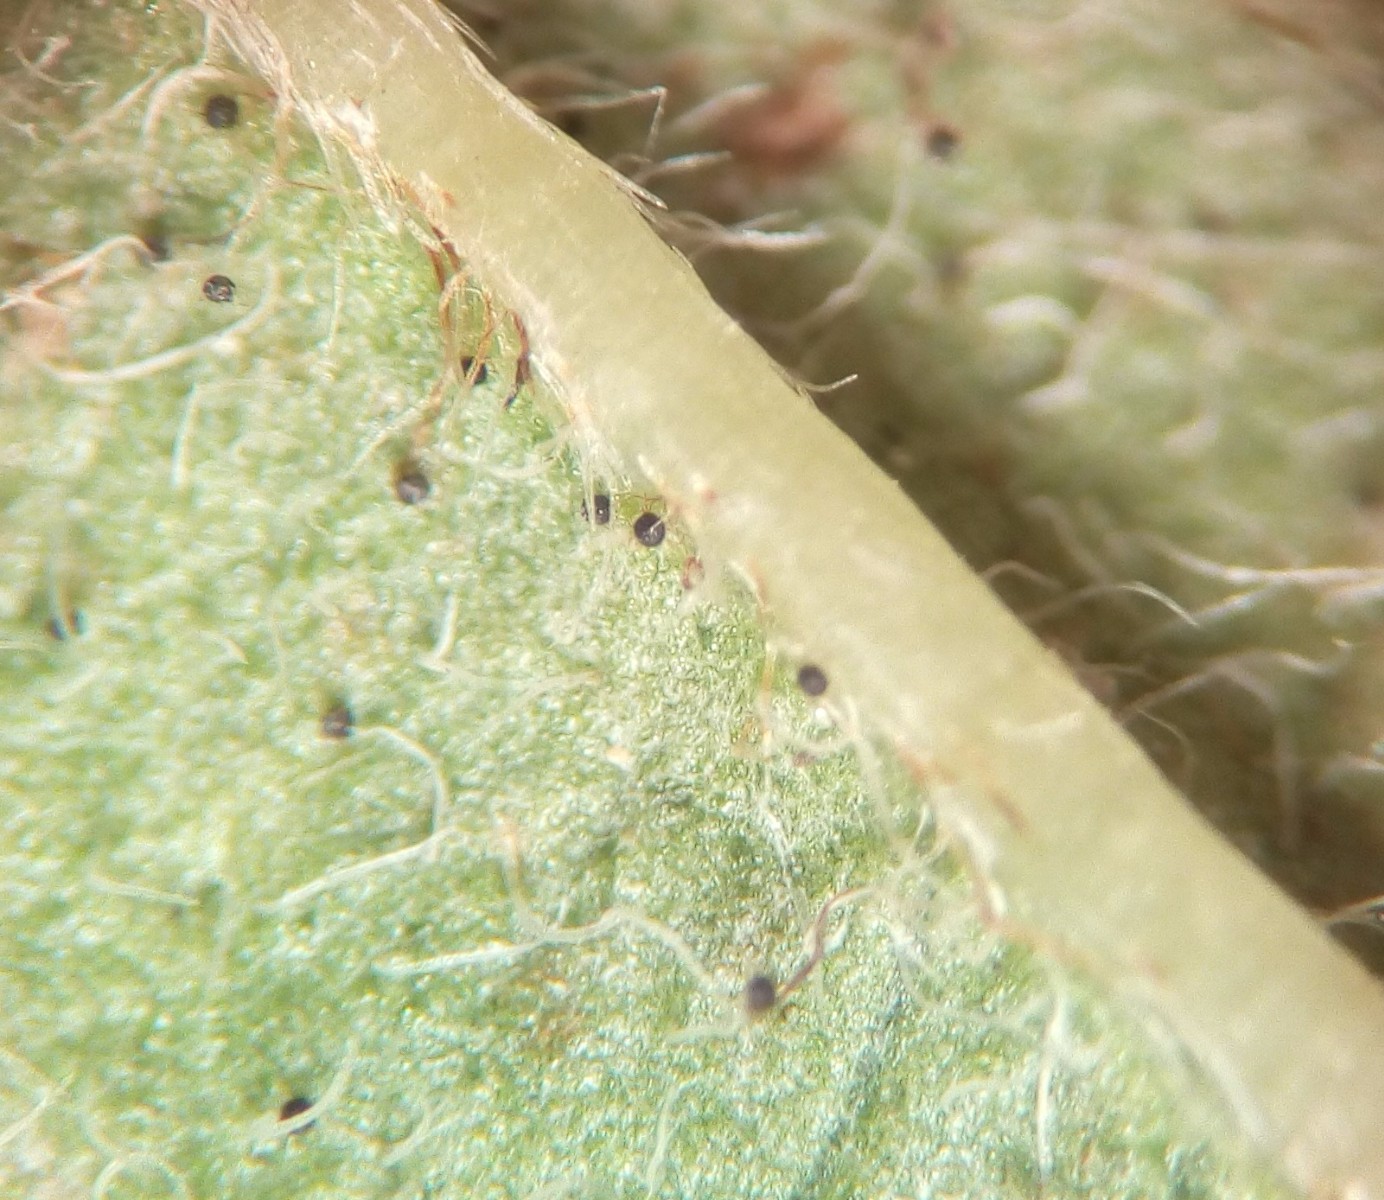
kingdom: Fungi
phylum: Ascomycota
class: Leotiomycetes
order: Helotiales
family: Erysiphaceae
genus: Erysiphe
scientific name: Erysiphe tortilis
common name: kornel-meldug
